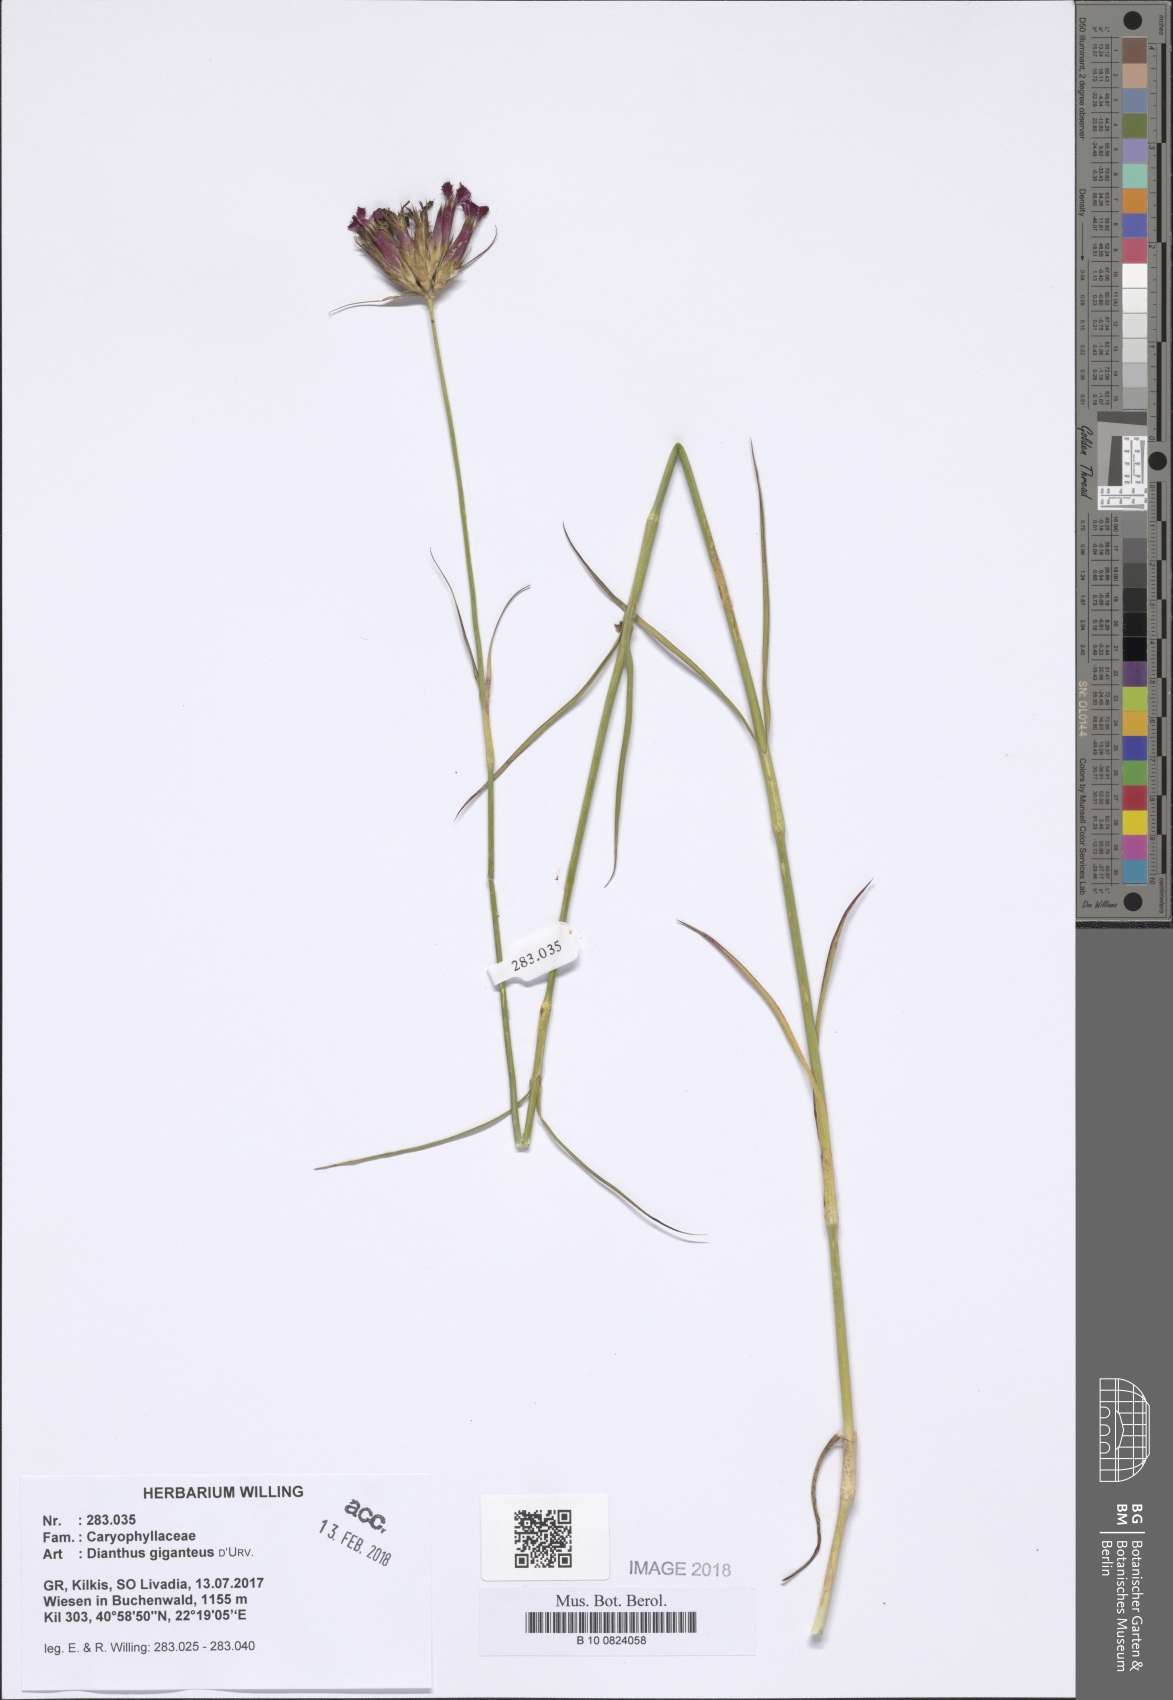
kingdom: Plantae
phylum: Tracheophyta
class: Magnoliopsida
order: Caryophyllales
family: Caryophyllaceae
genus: Dianthus
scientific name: Dianthus giganteus
